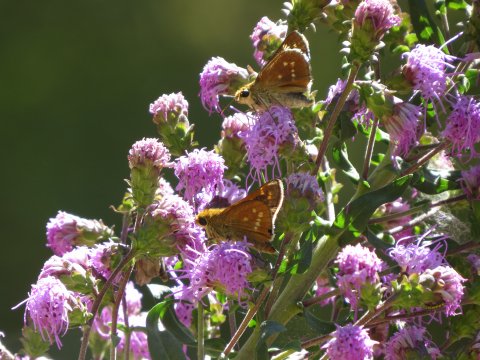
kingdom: Animalia
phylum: Arthropoda
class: Insecta
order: Lepidoptera
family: Hesperiidae
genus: Hesperia
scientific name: Hesperia leonardus
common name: Leonard's Skipper
